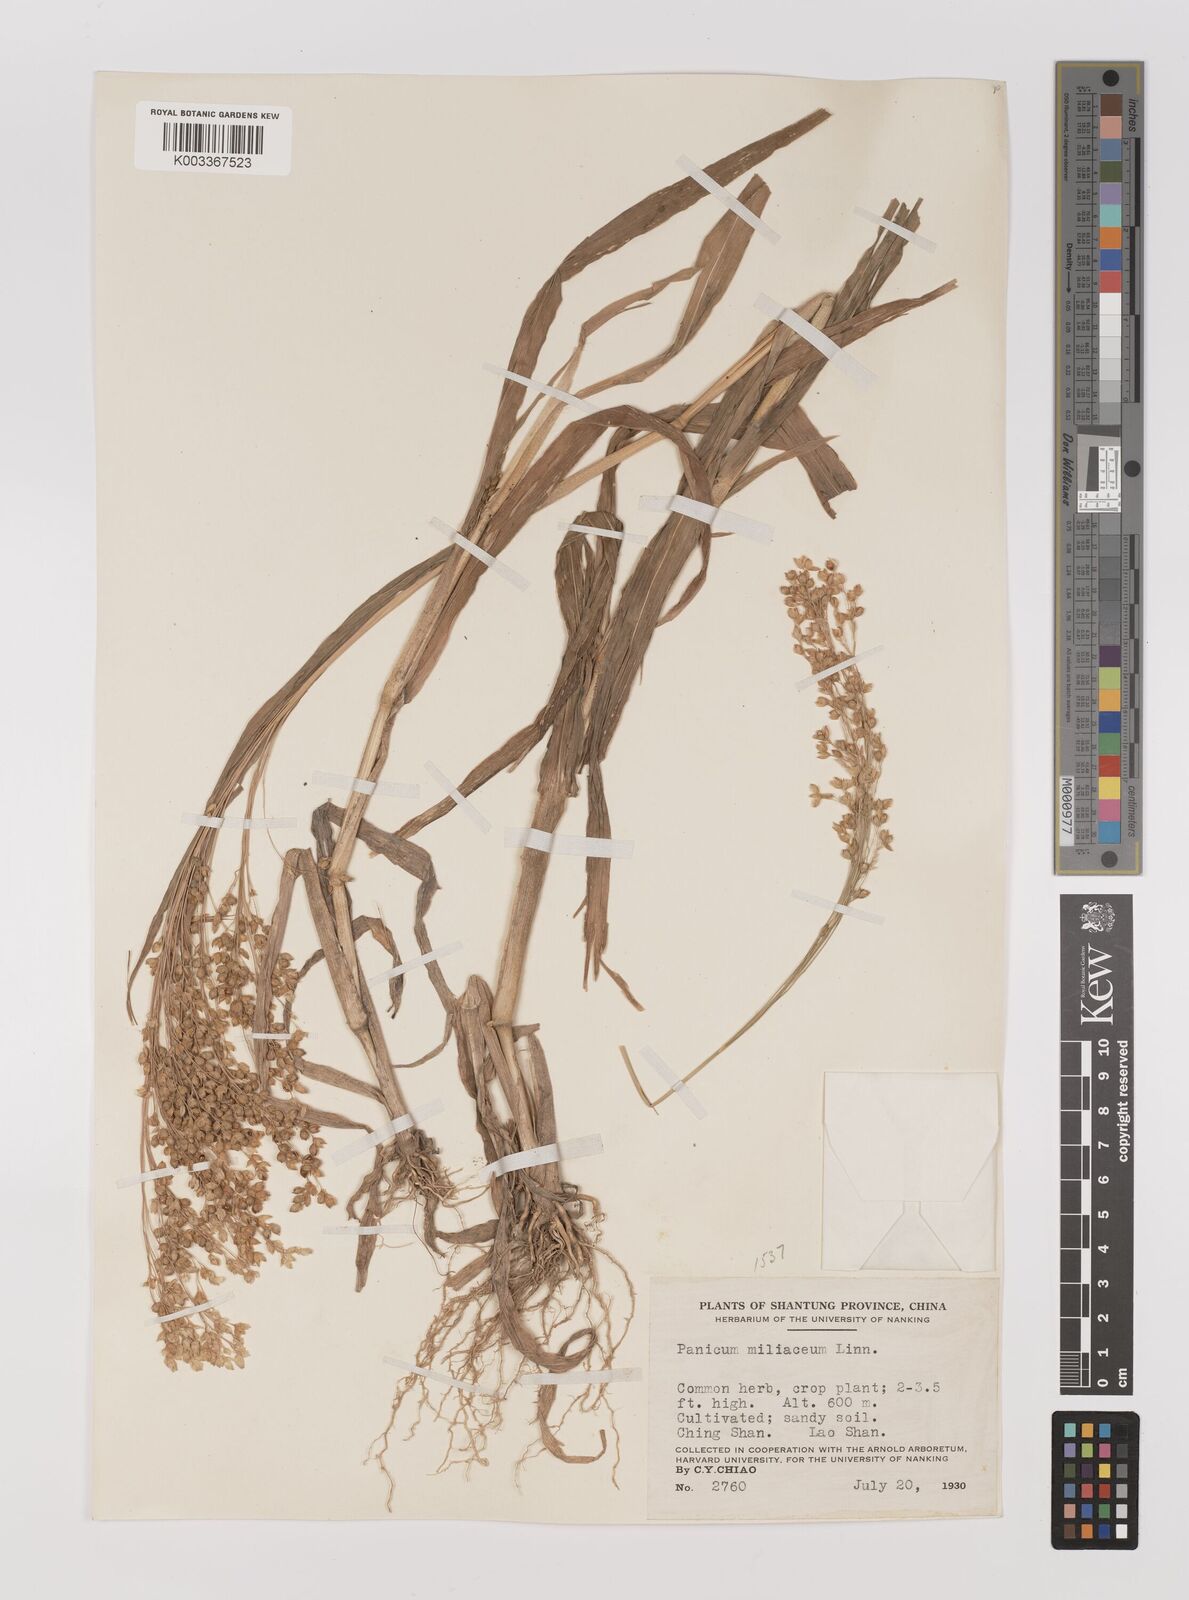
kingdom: Plantae
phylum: Tracheophyta
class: Liliopsida
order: Poales
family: Poaceae
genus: Panicum
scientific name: Panicum miliaceum
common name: Common millet
